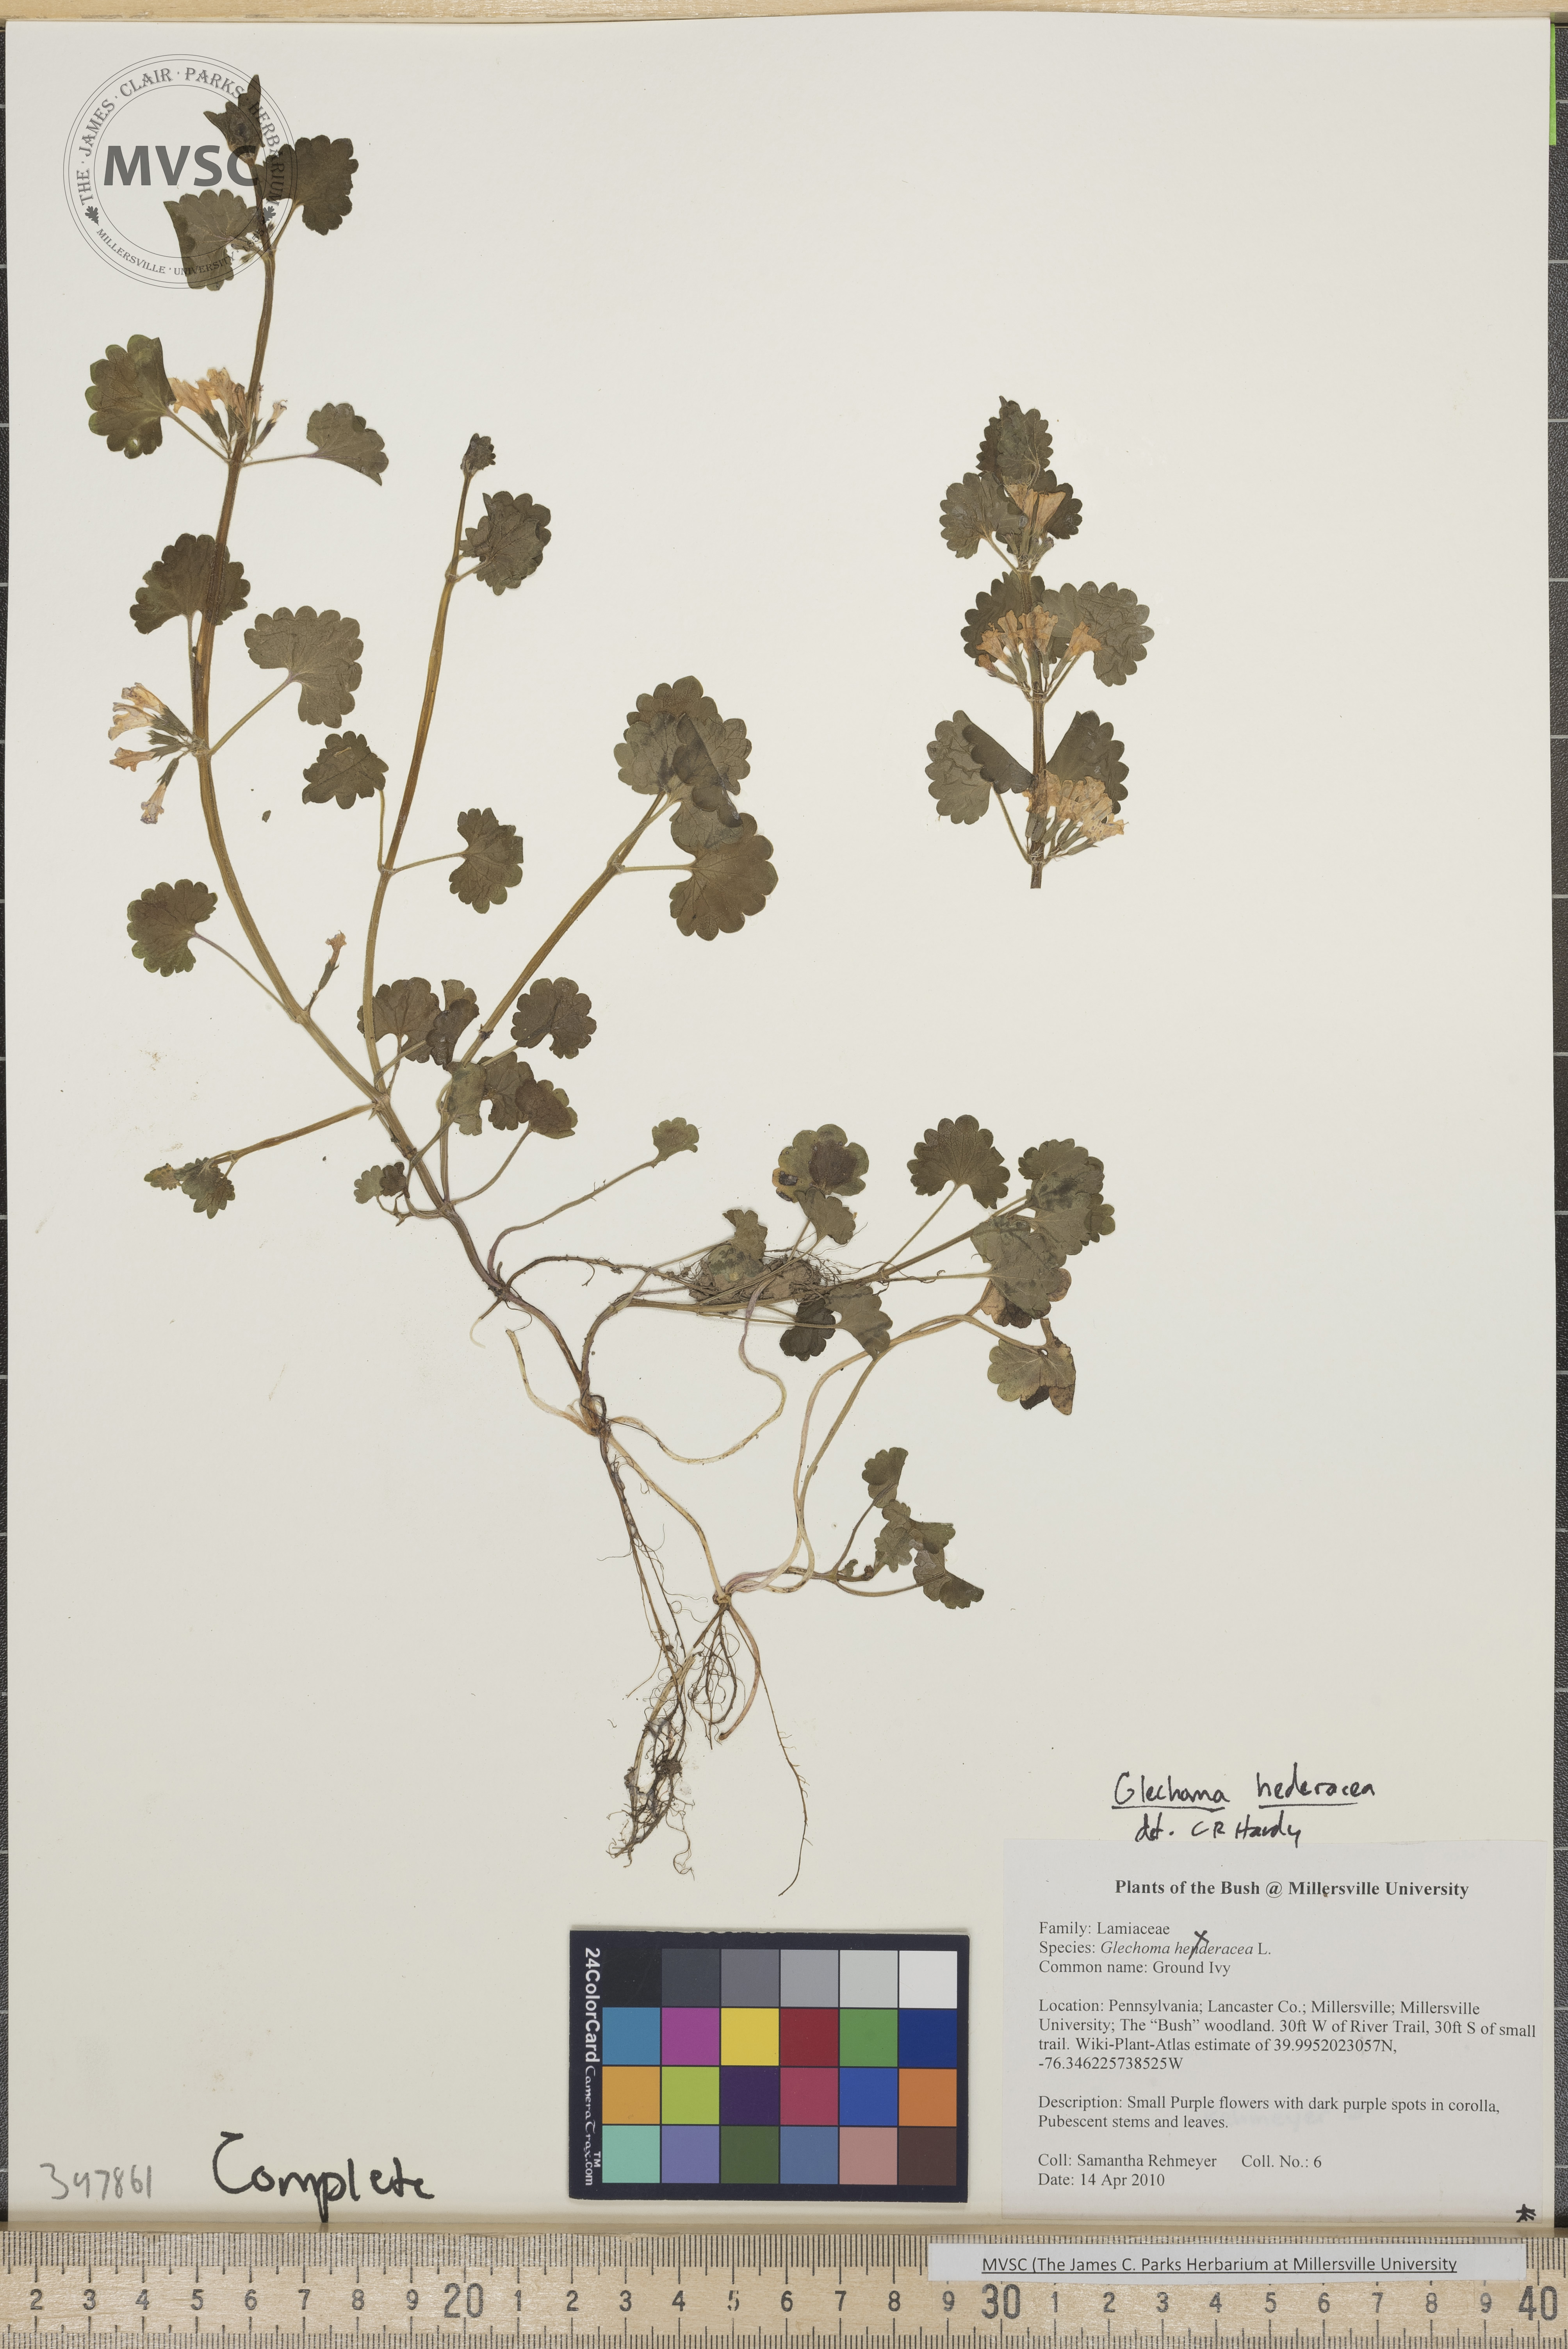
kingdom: Plantae
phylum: Tracheophyta
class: Magnoliopsida
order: Lamiales
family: Lamiaceae
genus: Glechoma
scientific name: Glechoma hederacea
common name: Gill-over-the-ground
